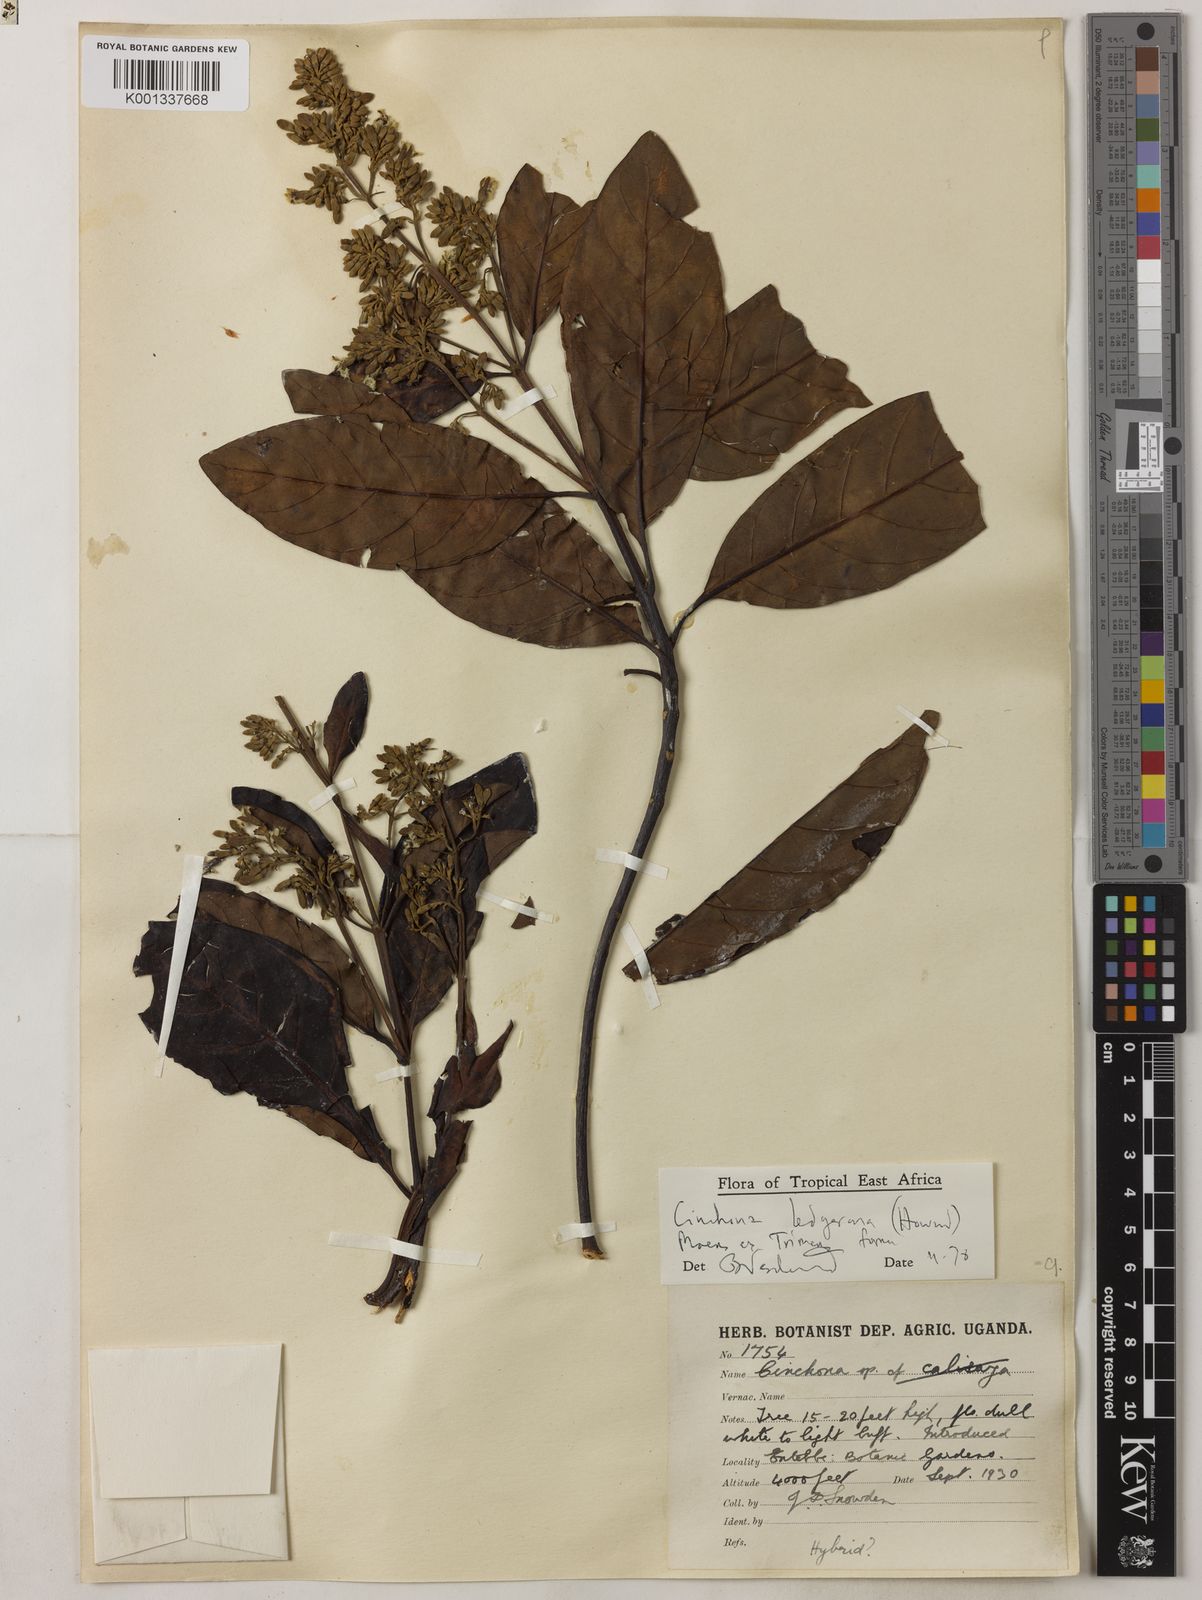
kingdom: Plantae
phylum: Tracheophyta
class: Magnoliopsida
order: Gentianales
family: Rubiaceae
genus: Cinchona
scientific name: Cinchona calisaya
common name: Ledgerbark
